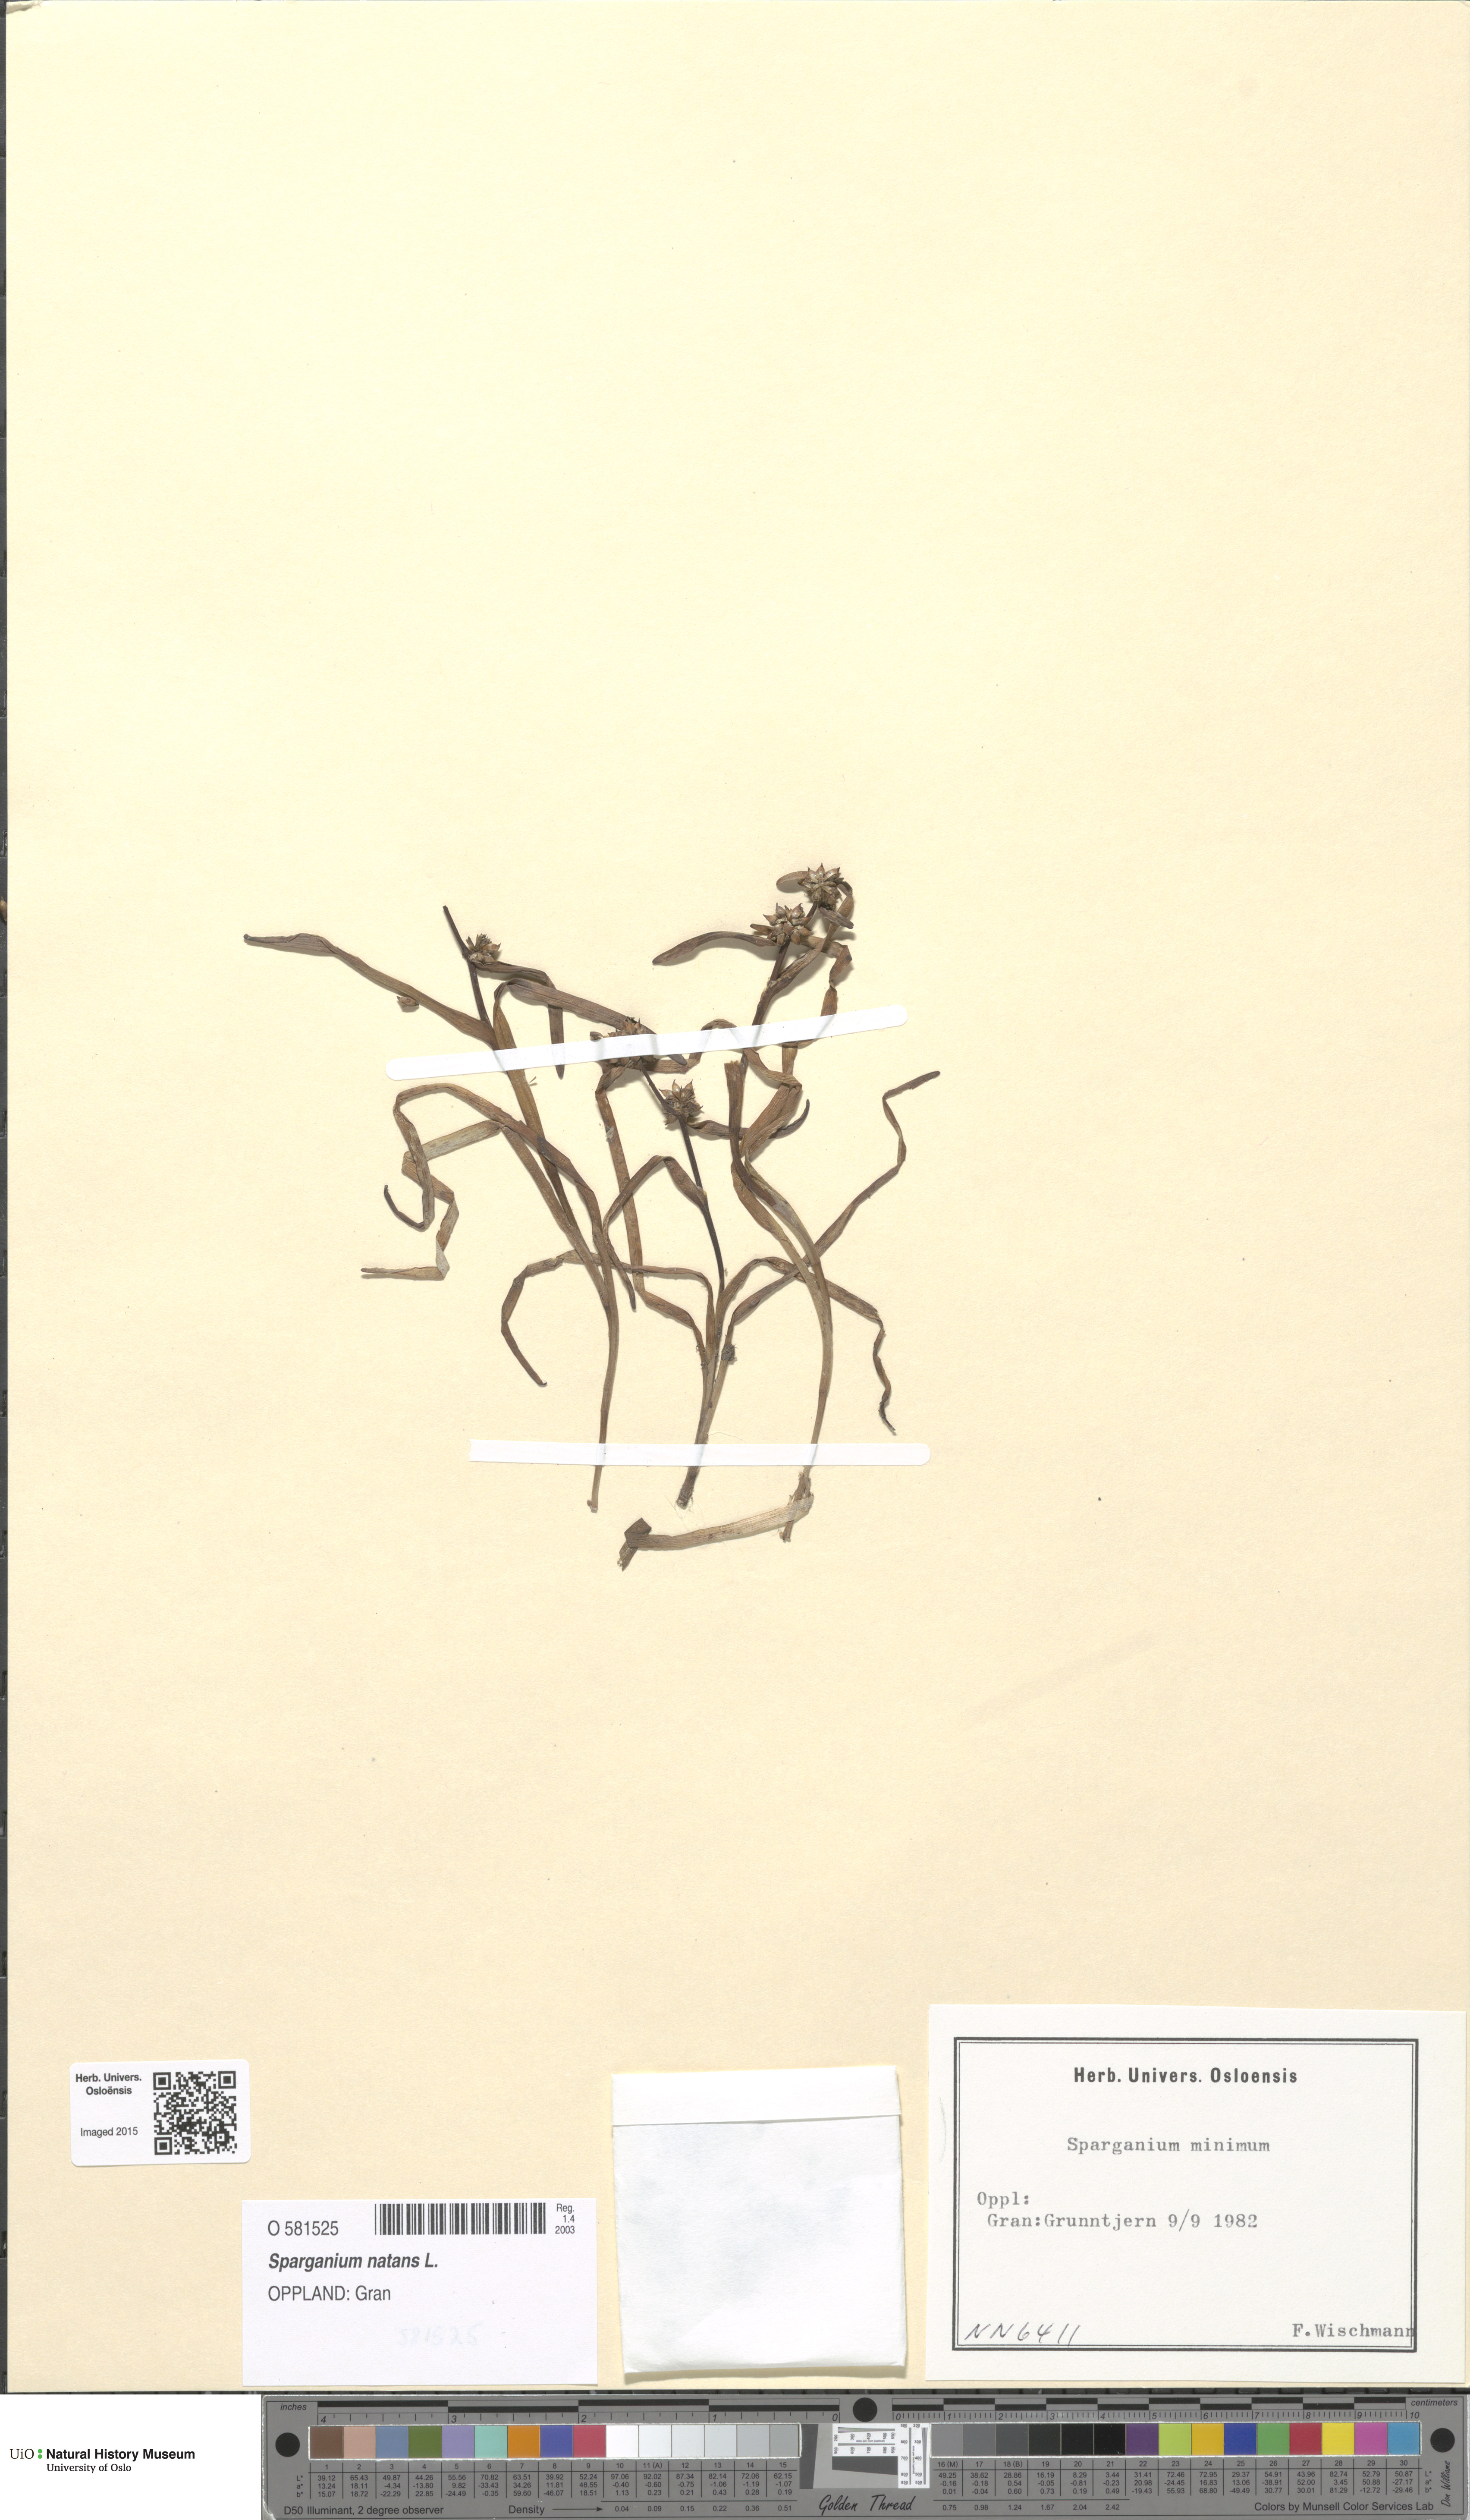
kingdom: Plantae
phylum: Tracheophyta
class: Liliopsida
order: Poales
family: Typhaceae
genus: Sparganium
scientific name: Sparganium natans
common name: Least bur-reed
